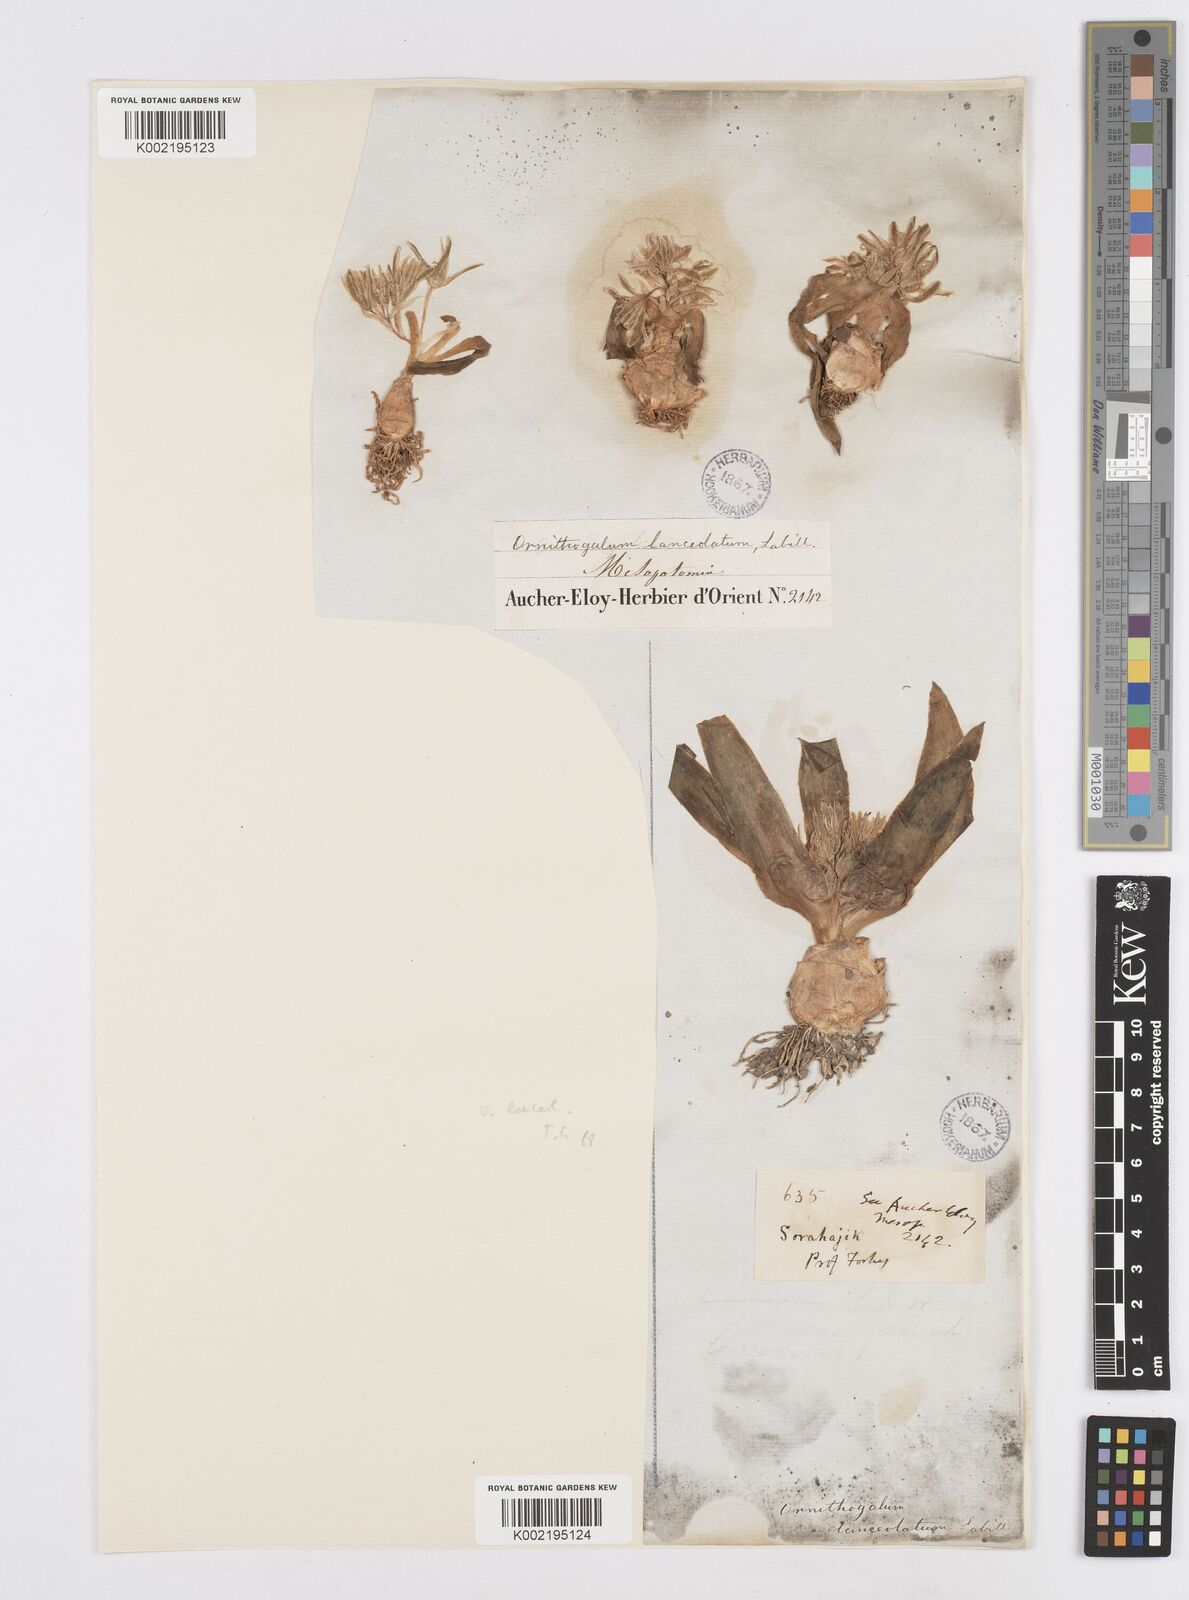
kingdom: Plantae
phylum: Tracheophyta
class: Liliopsida
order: Asparagales
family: Asparagaceae
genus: Ornithogalum
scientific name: Ornithogalum lanceolatum
